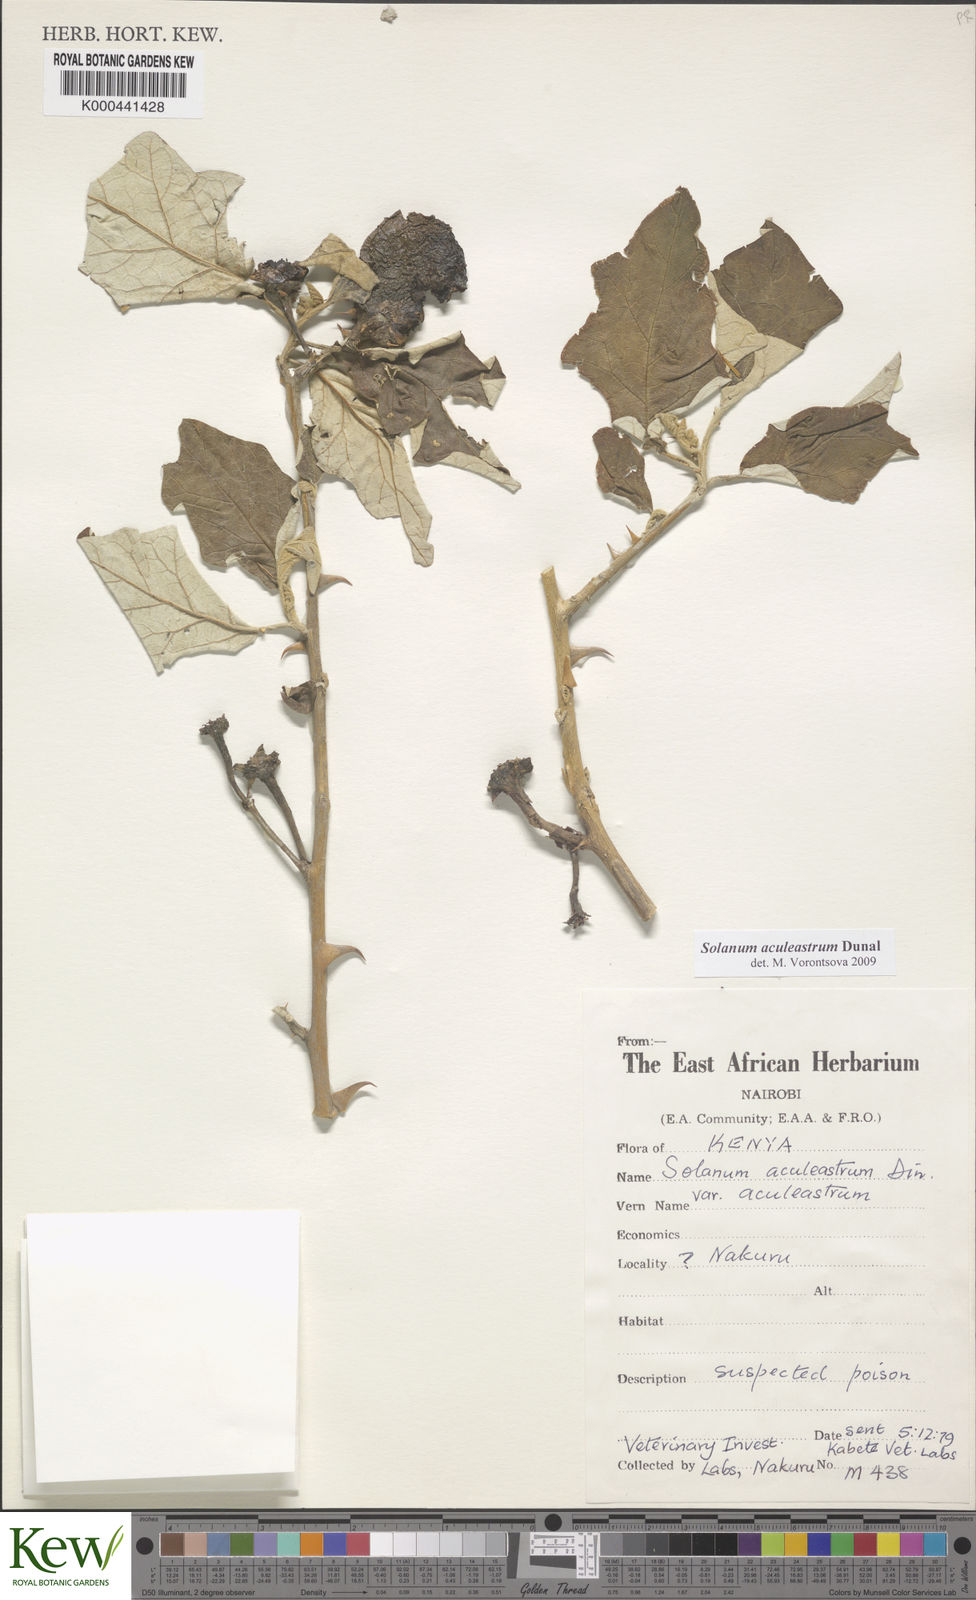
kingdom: Plantae
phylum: Tracheophyta
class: Magnoliopsida
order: Solanales
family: Solanaceae
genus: Solanum
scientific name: Solanum aculeastrum
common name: Goat bitter-apple
